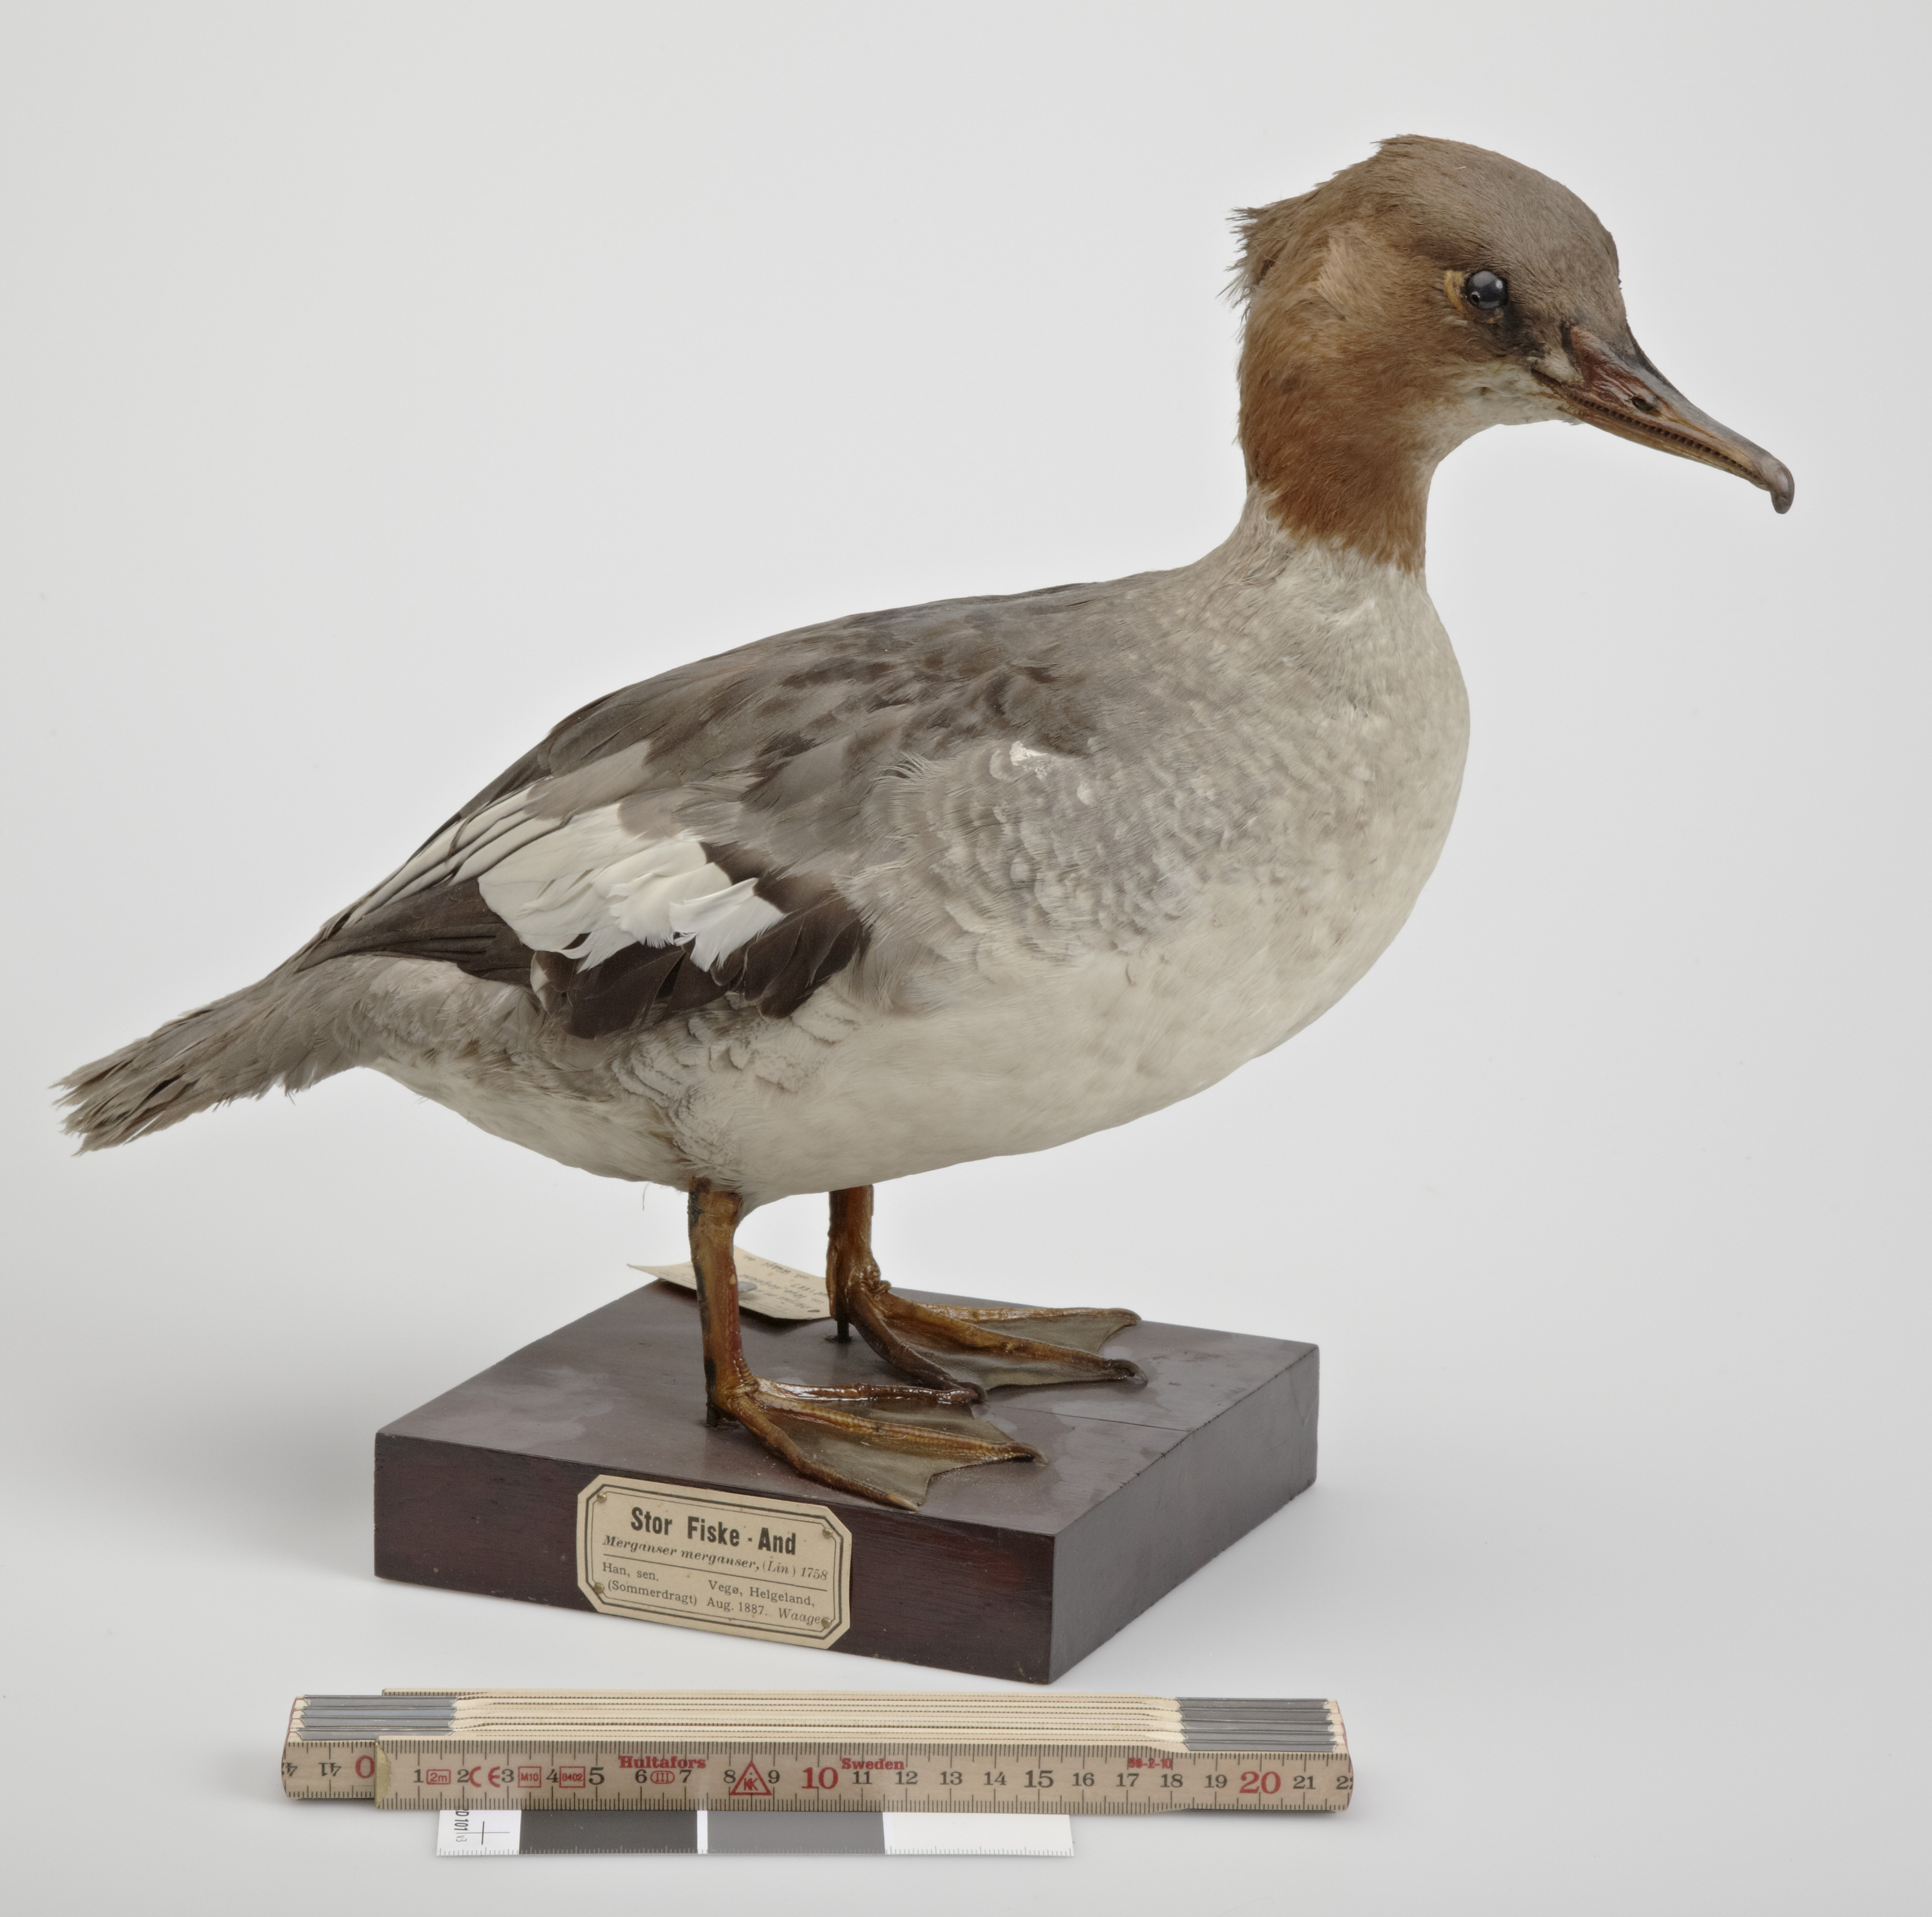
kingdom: Animalia
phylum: Chordata
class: Aves
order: Anseriformes
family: Anatidae
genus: Mergus
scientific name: Mergus merganser
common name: Common merganser
